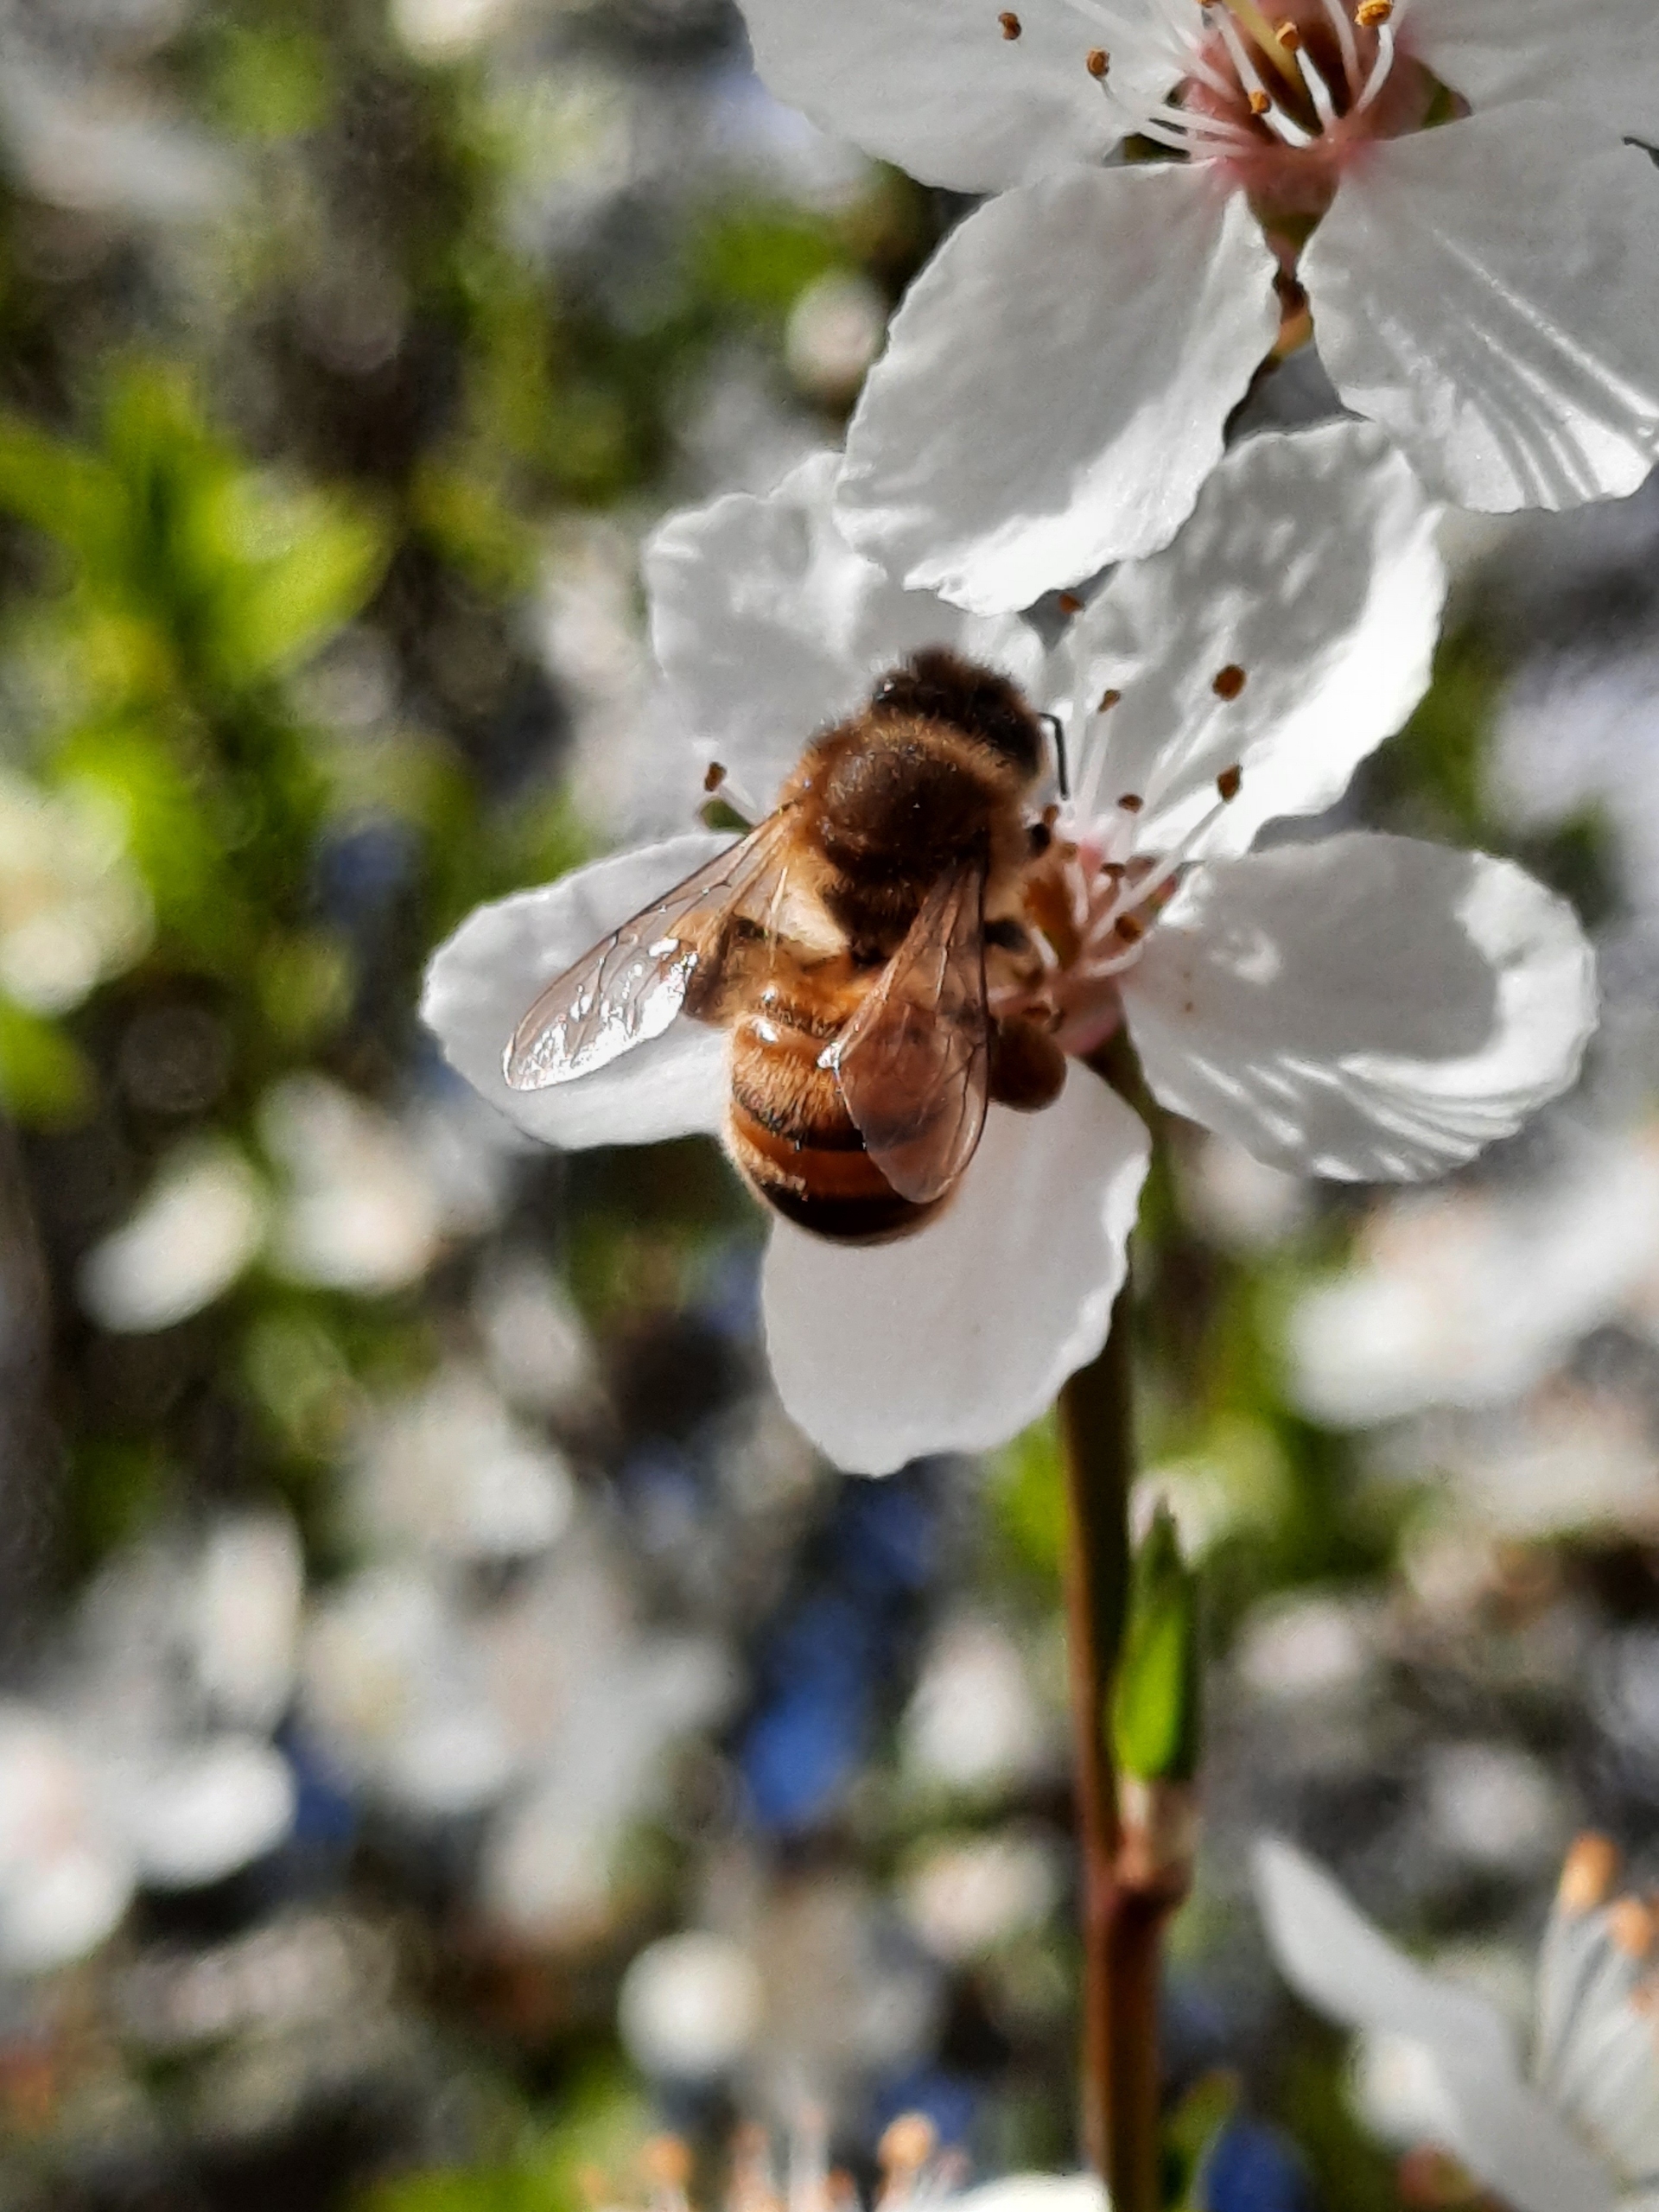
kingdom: Animalia
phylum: Arthropoda
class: Insecta
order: Hymenoptera
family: Apidae
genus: Apis
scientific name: Apis mellifera
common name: Honningbi
